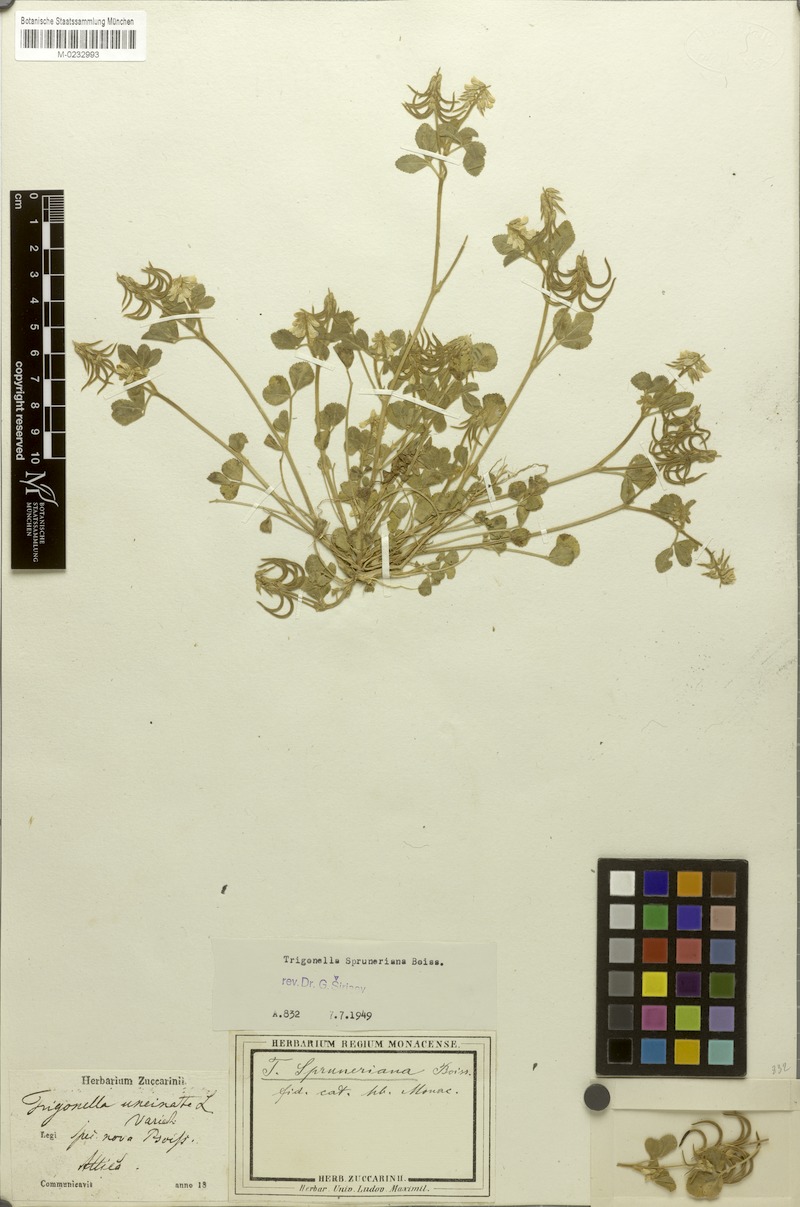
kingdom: Plantae
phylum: Tracheophyta
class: Magnoliopsida
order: Fabales
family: Fabaceae
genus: Trigonella
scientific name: Trigonella spruneriana
